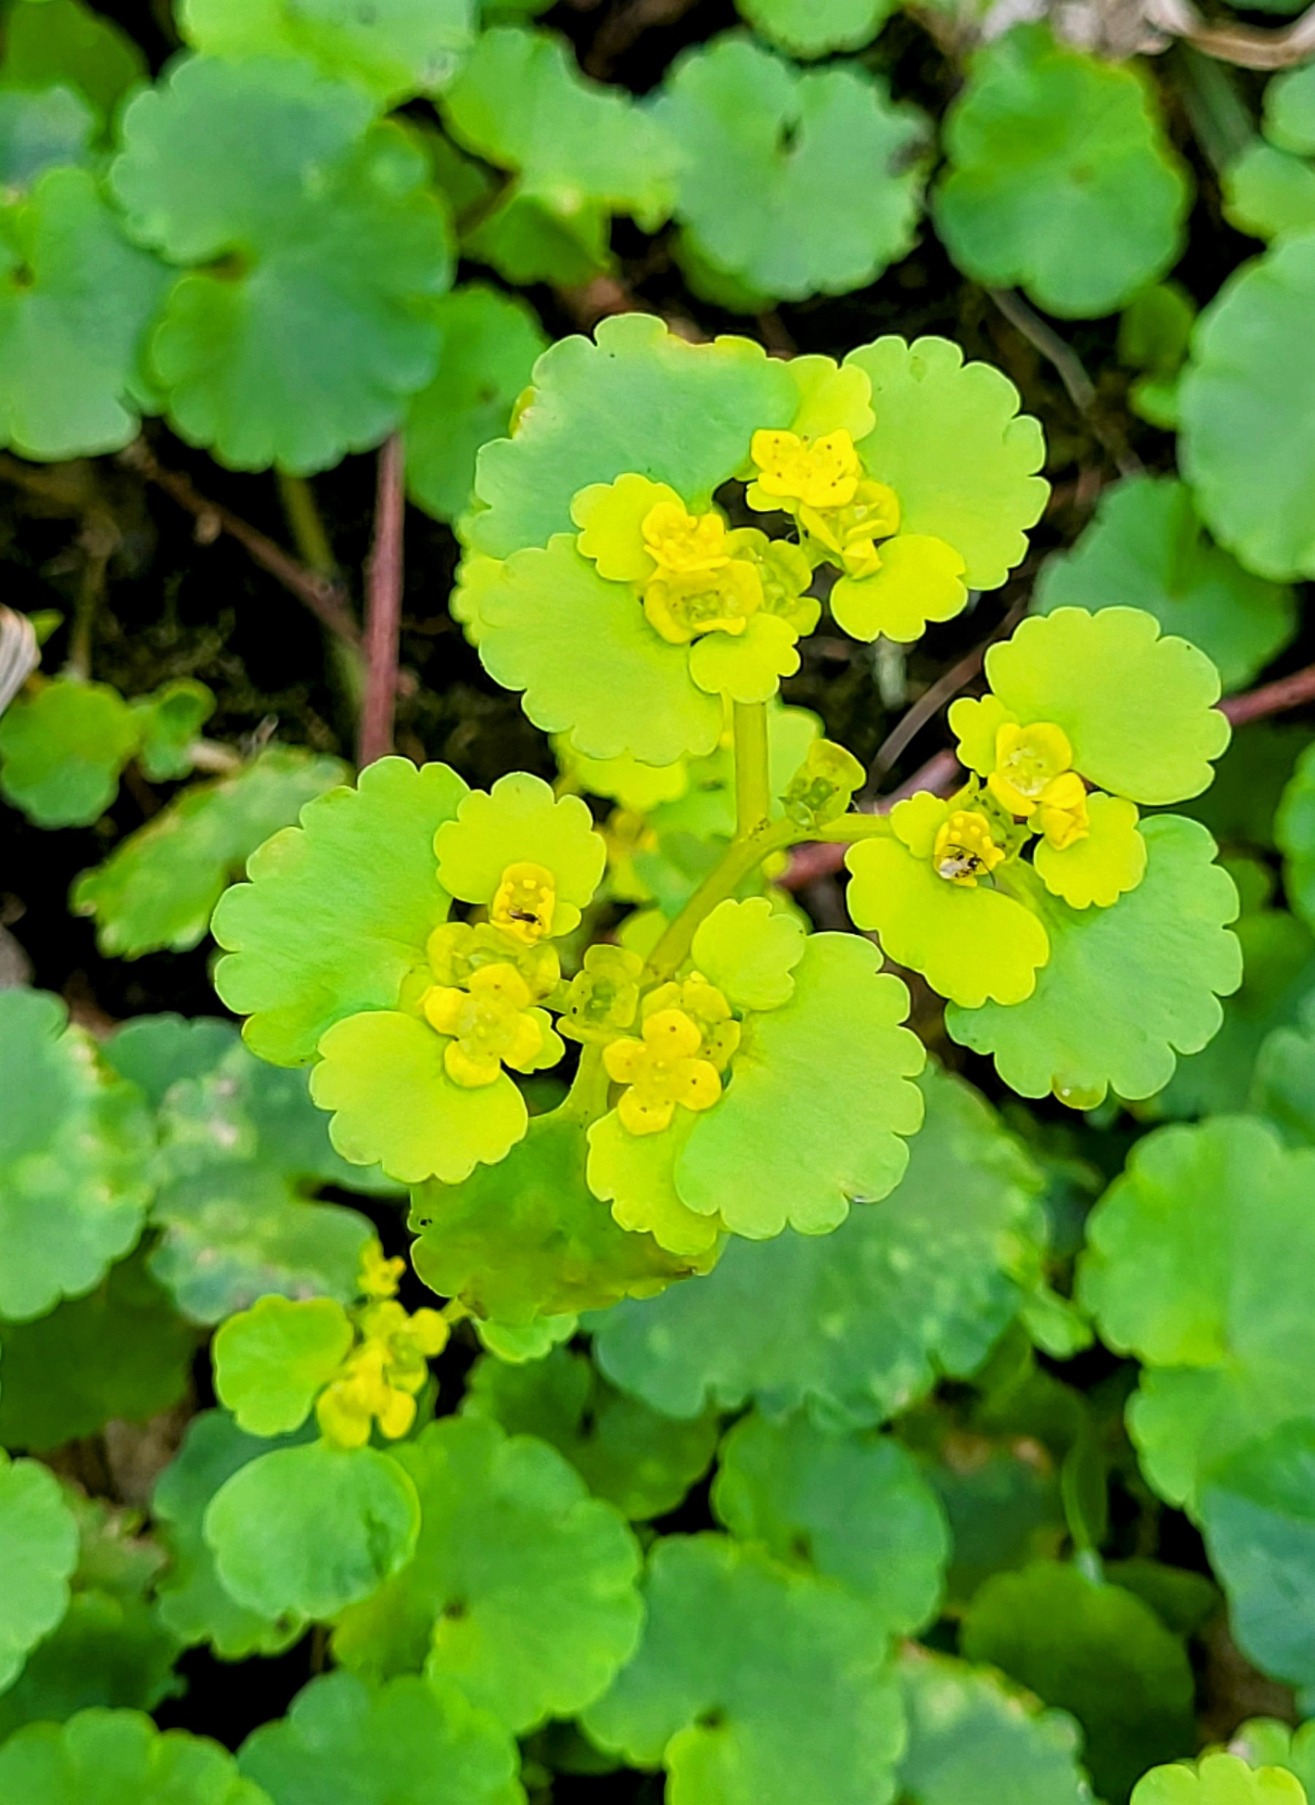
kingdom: Plantae
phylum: Tracheophyta
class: Magnoliopsida
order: Saxifragales
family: Saxifragaceae
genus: Chrysosplenium
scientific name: Chrysosplenium alternifolium
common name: Almindelig milturt
